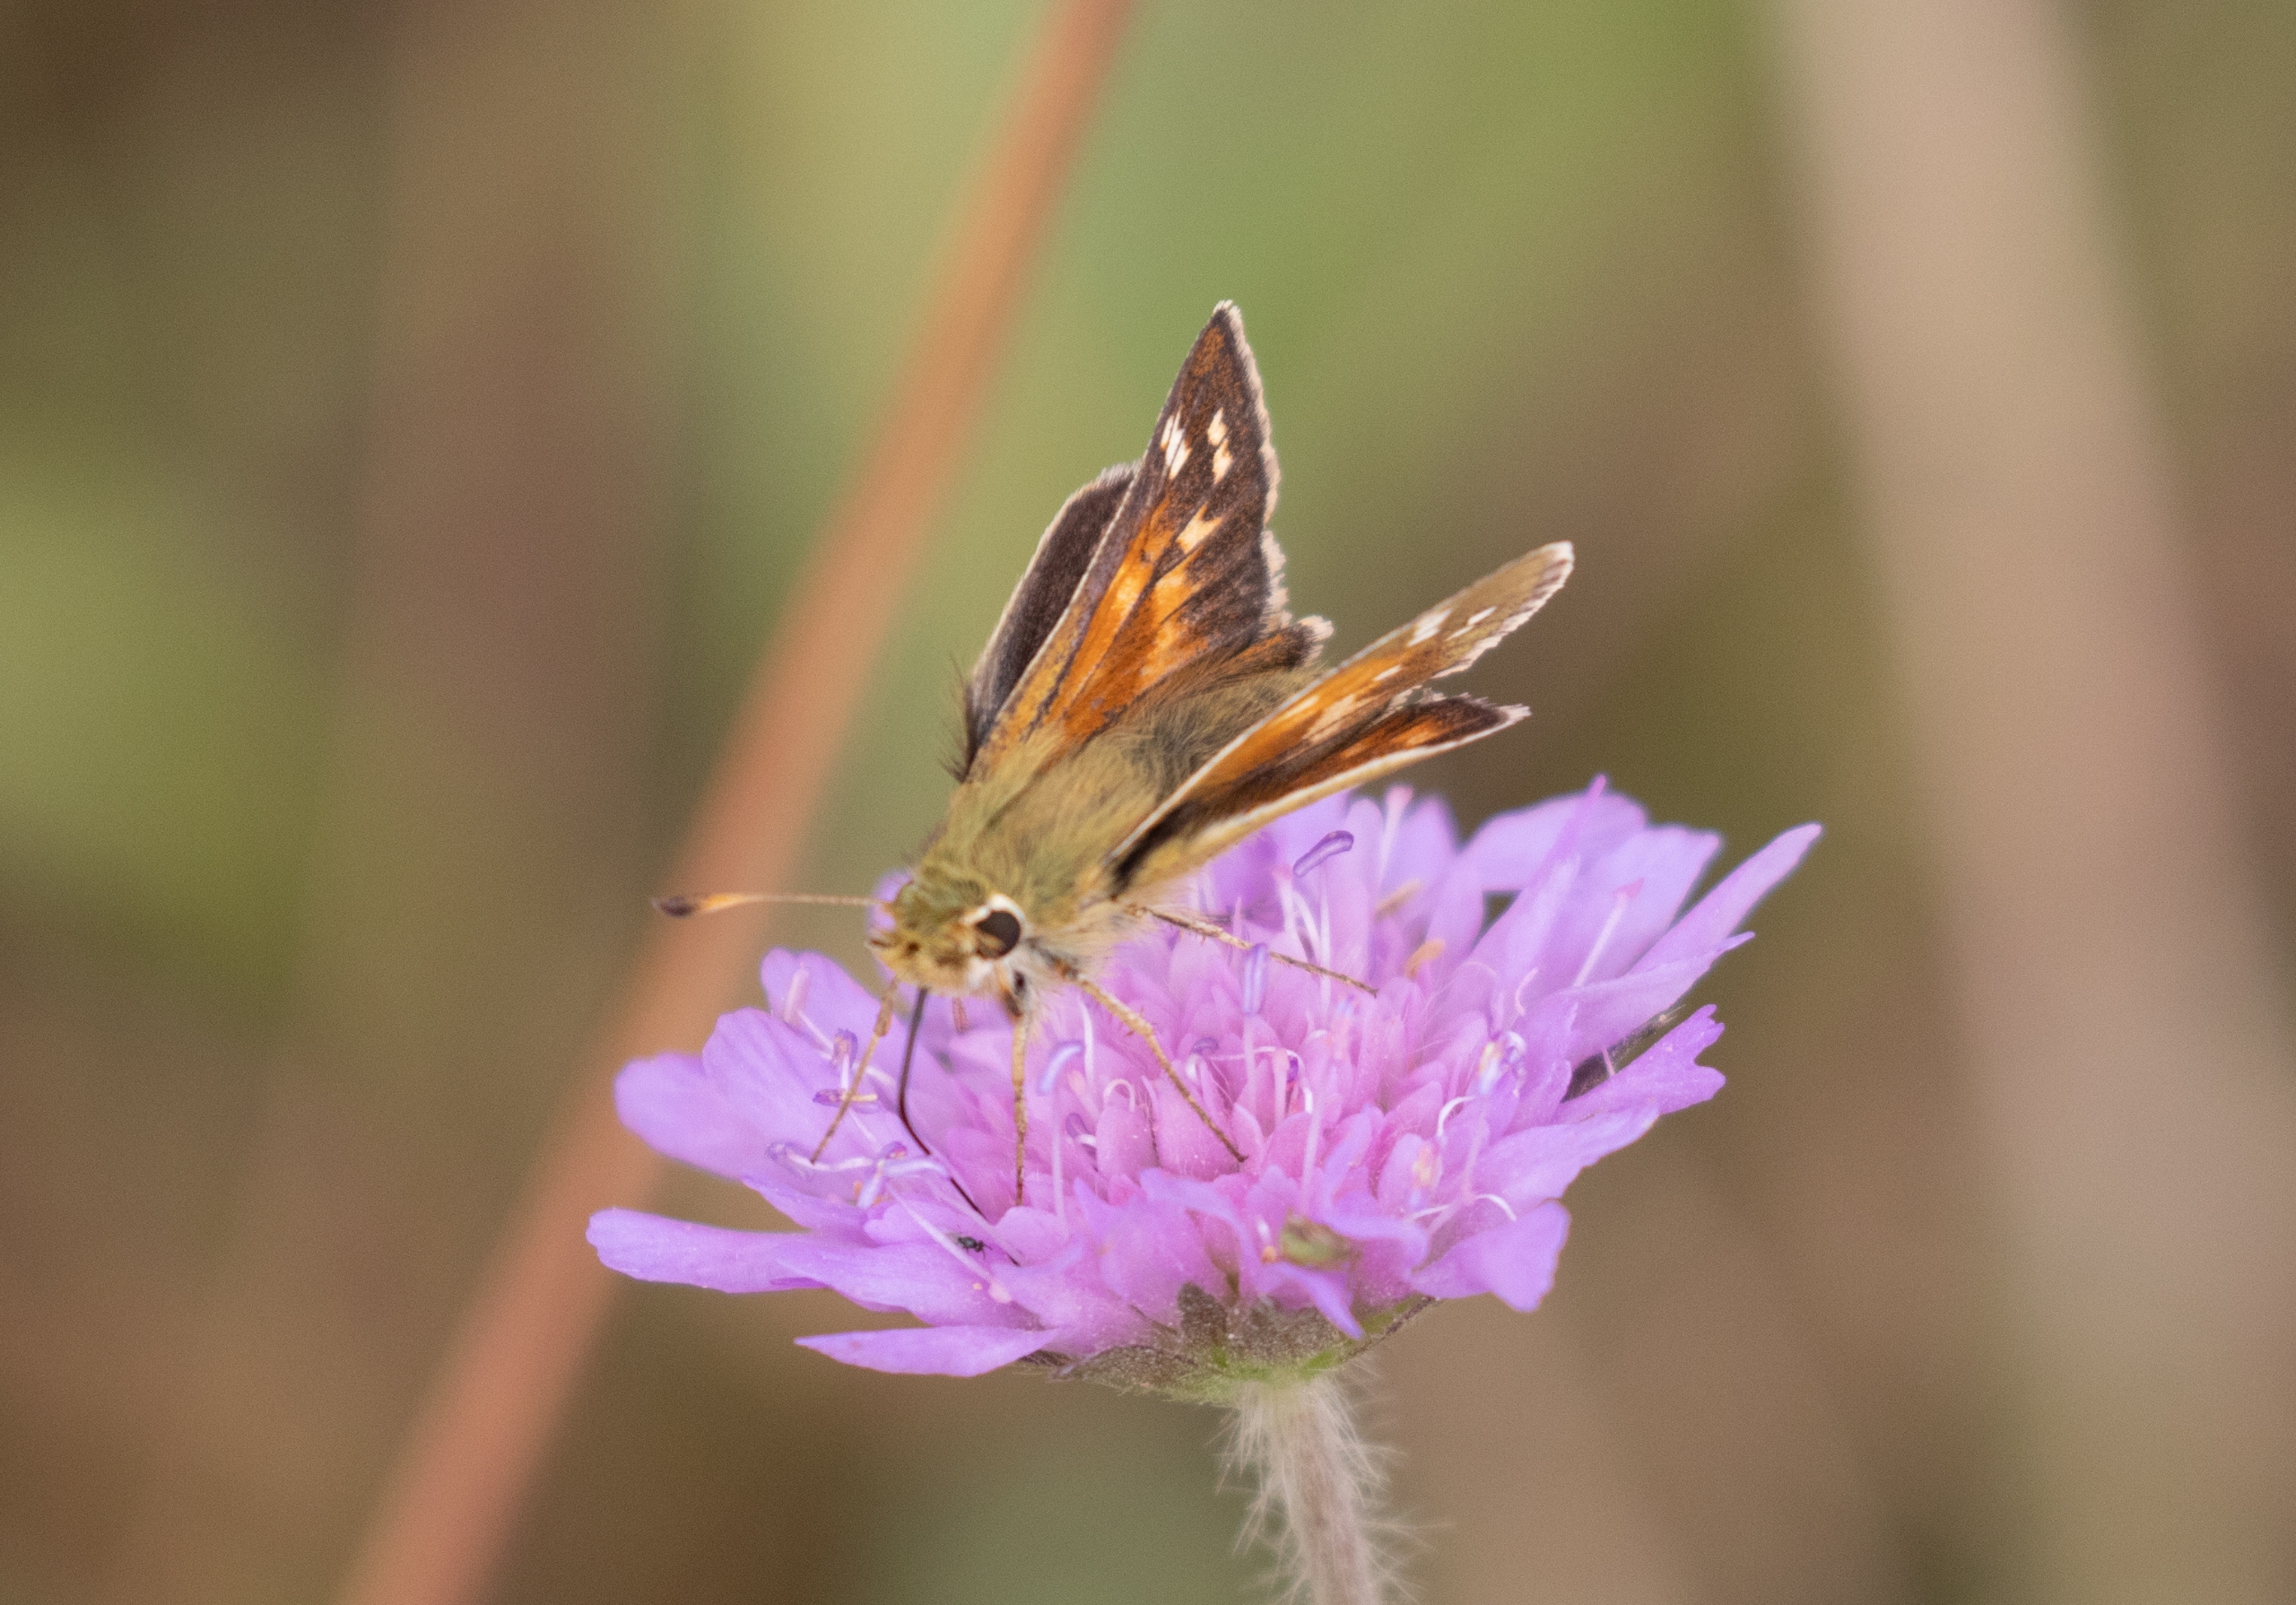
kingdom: Animalia
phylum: Arthropoda
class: Insecta
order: Lepidoptera
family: Hesperiidae
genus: Hesperia
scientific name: Hesperia comma
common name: Kommabredpande
